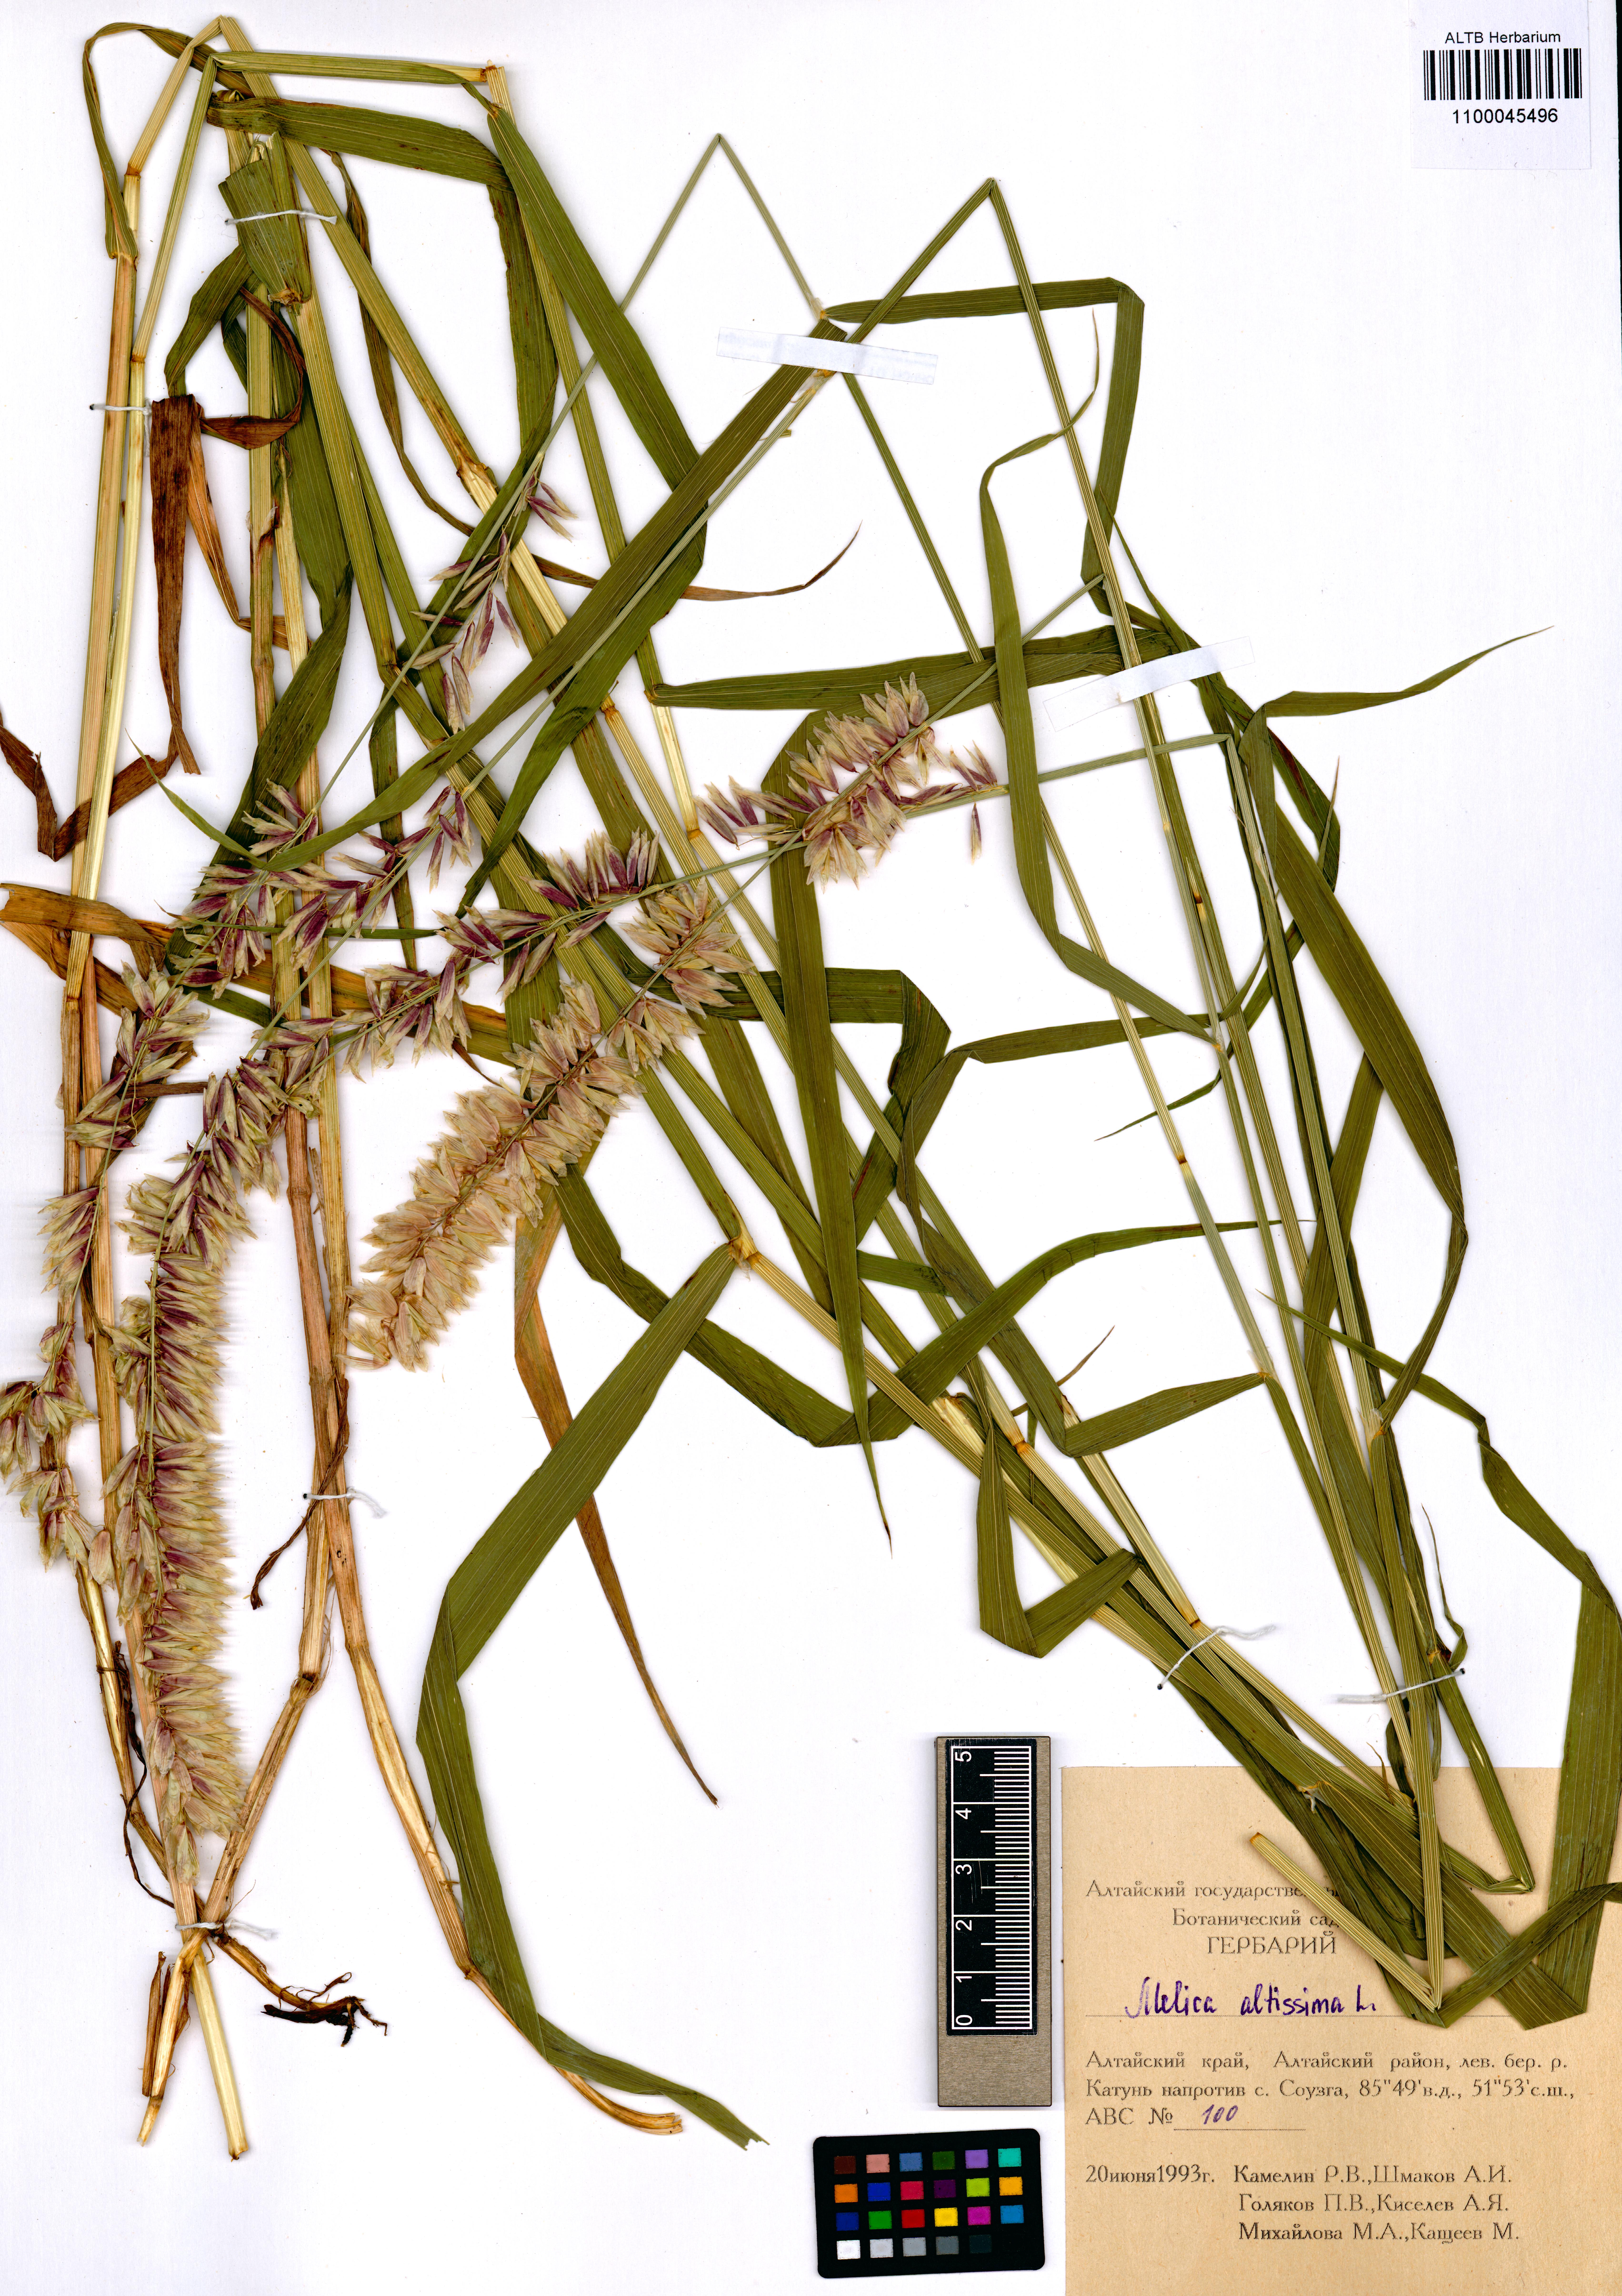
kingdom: Plantae
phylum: Tracheophyta
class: Liliopsida
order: Poales
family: Poaceae
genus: Melica
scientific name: Melica altissima
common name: Siberian melicgrass
